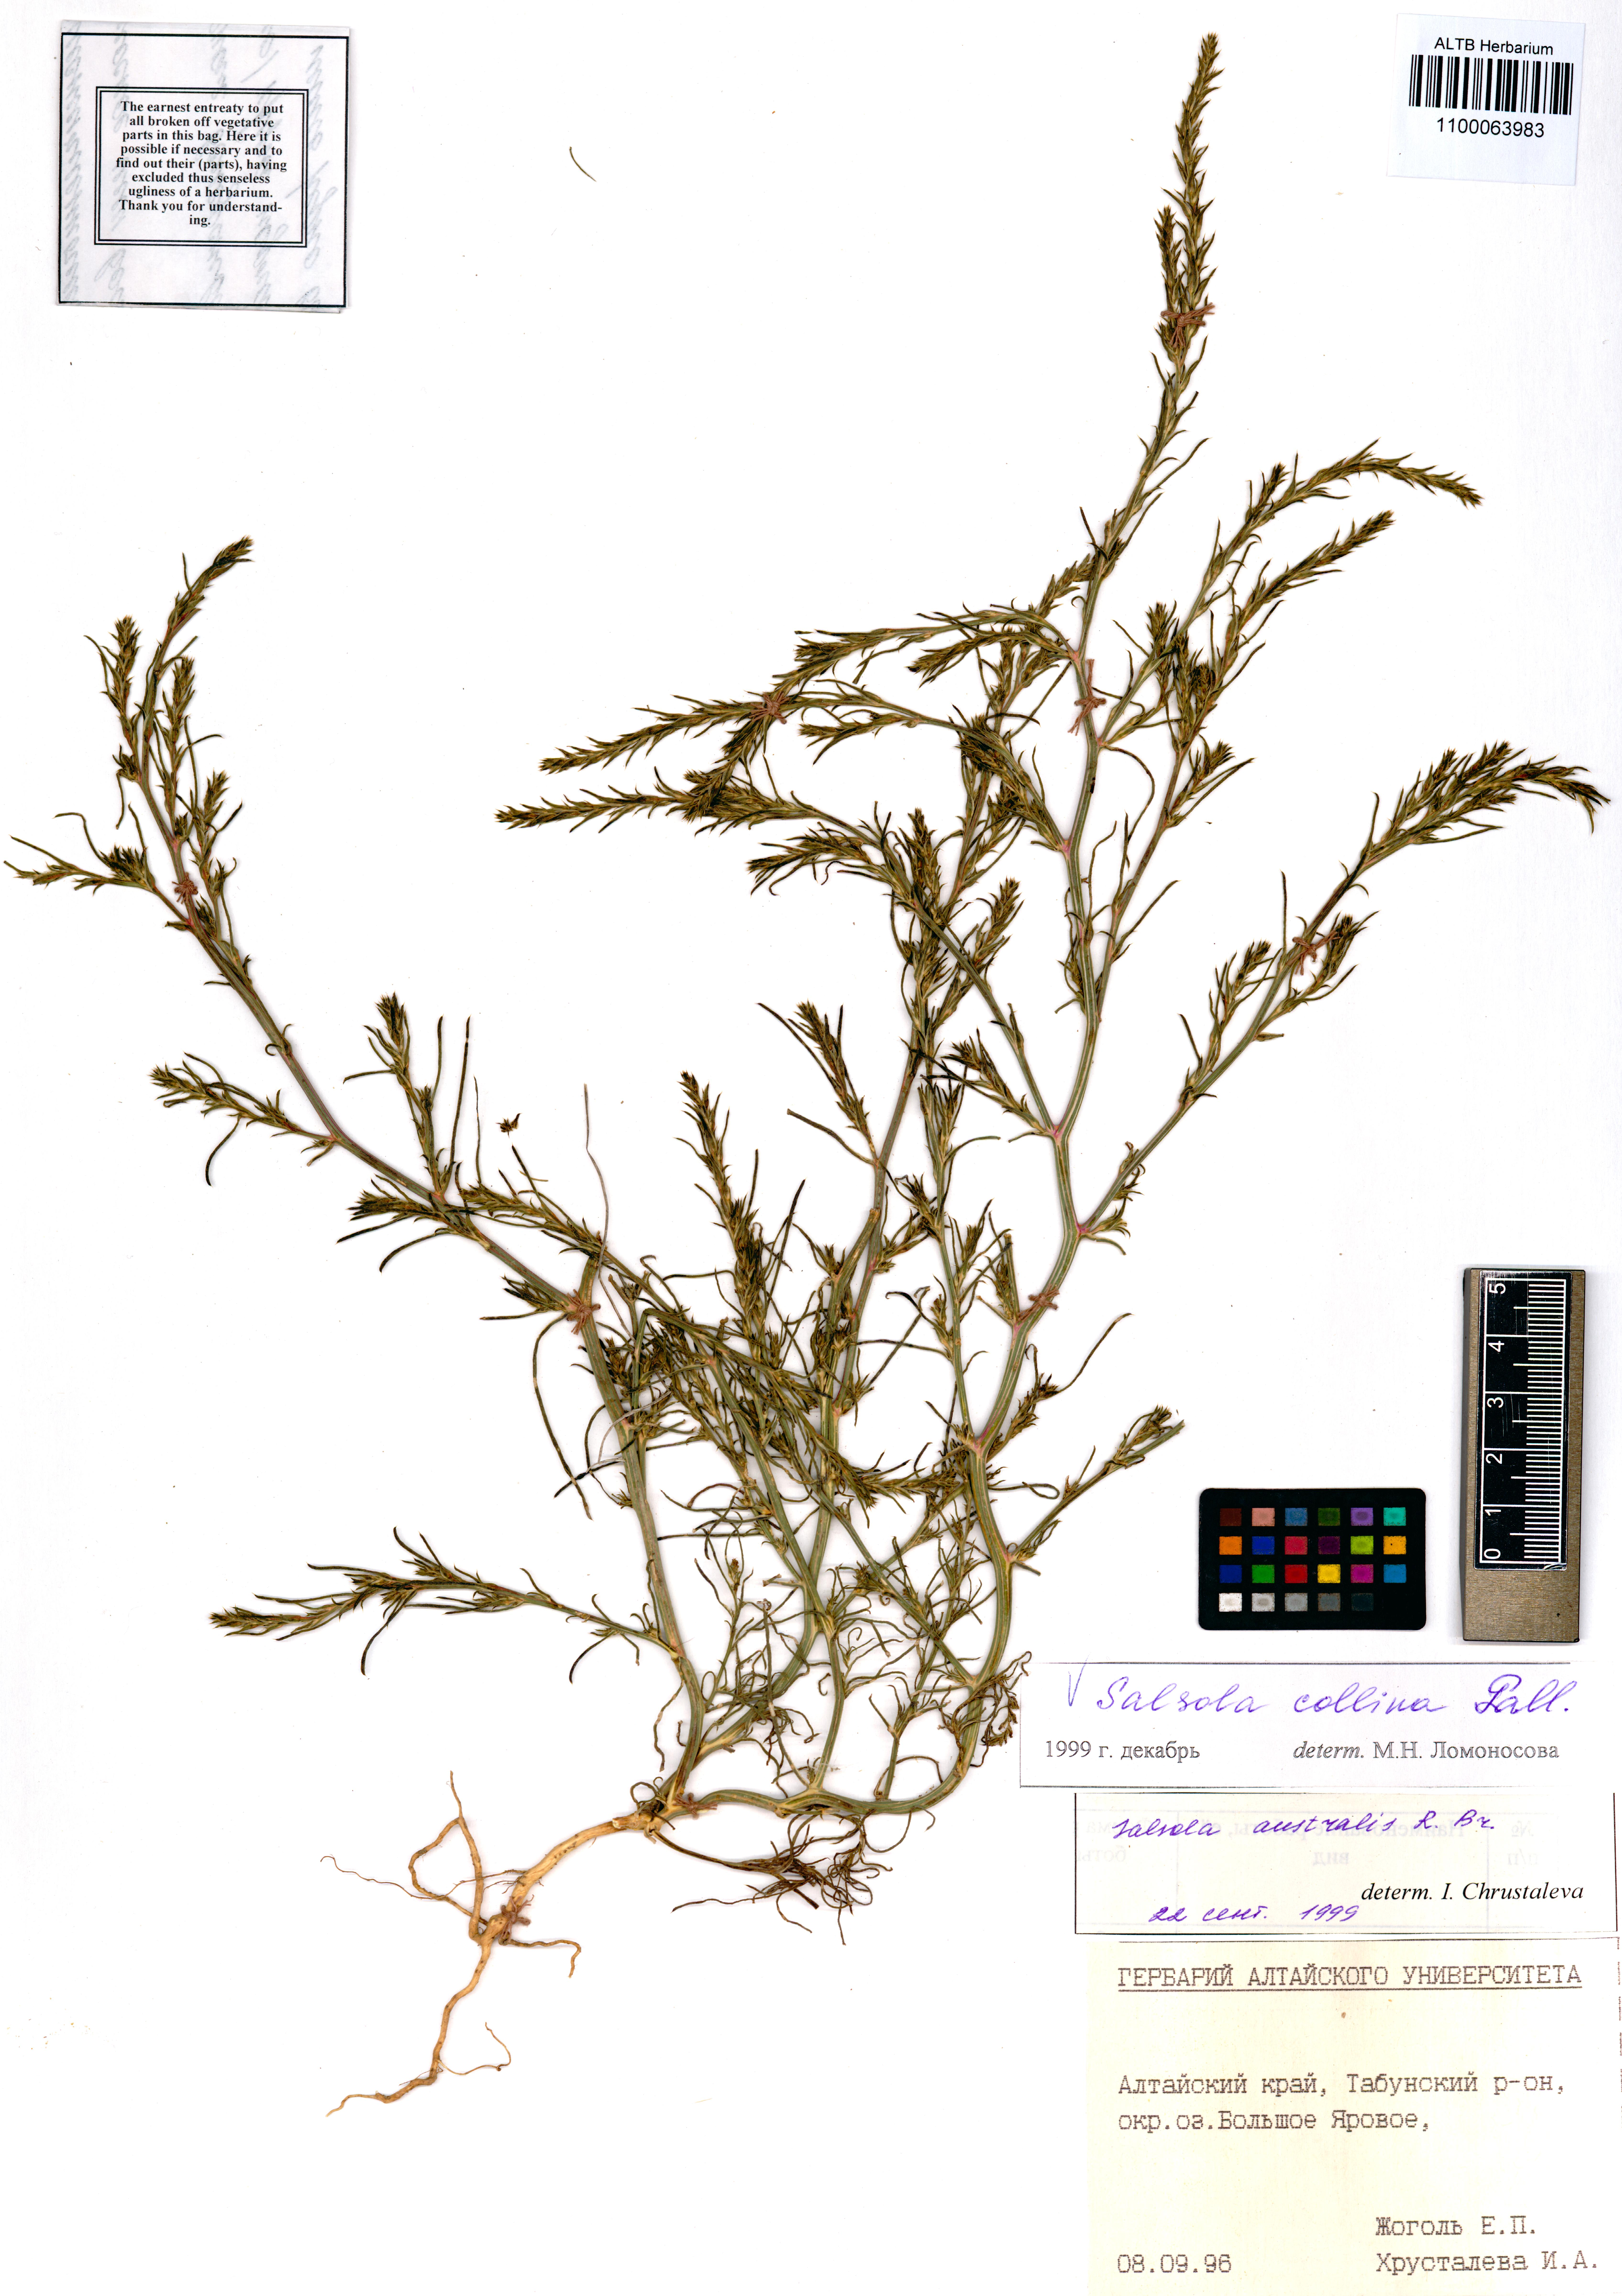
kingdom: Plantae
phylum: Tracheophyta
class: Magnoliopsida
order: Caryophyllales
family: Amaranthaceae
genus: Salsola
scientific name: Salsola collina
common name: Tumbleweed
